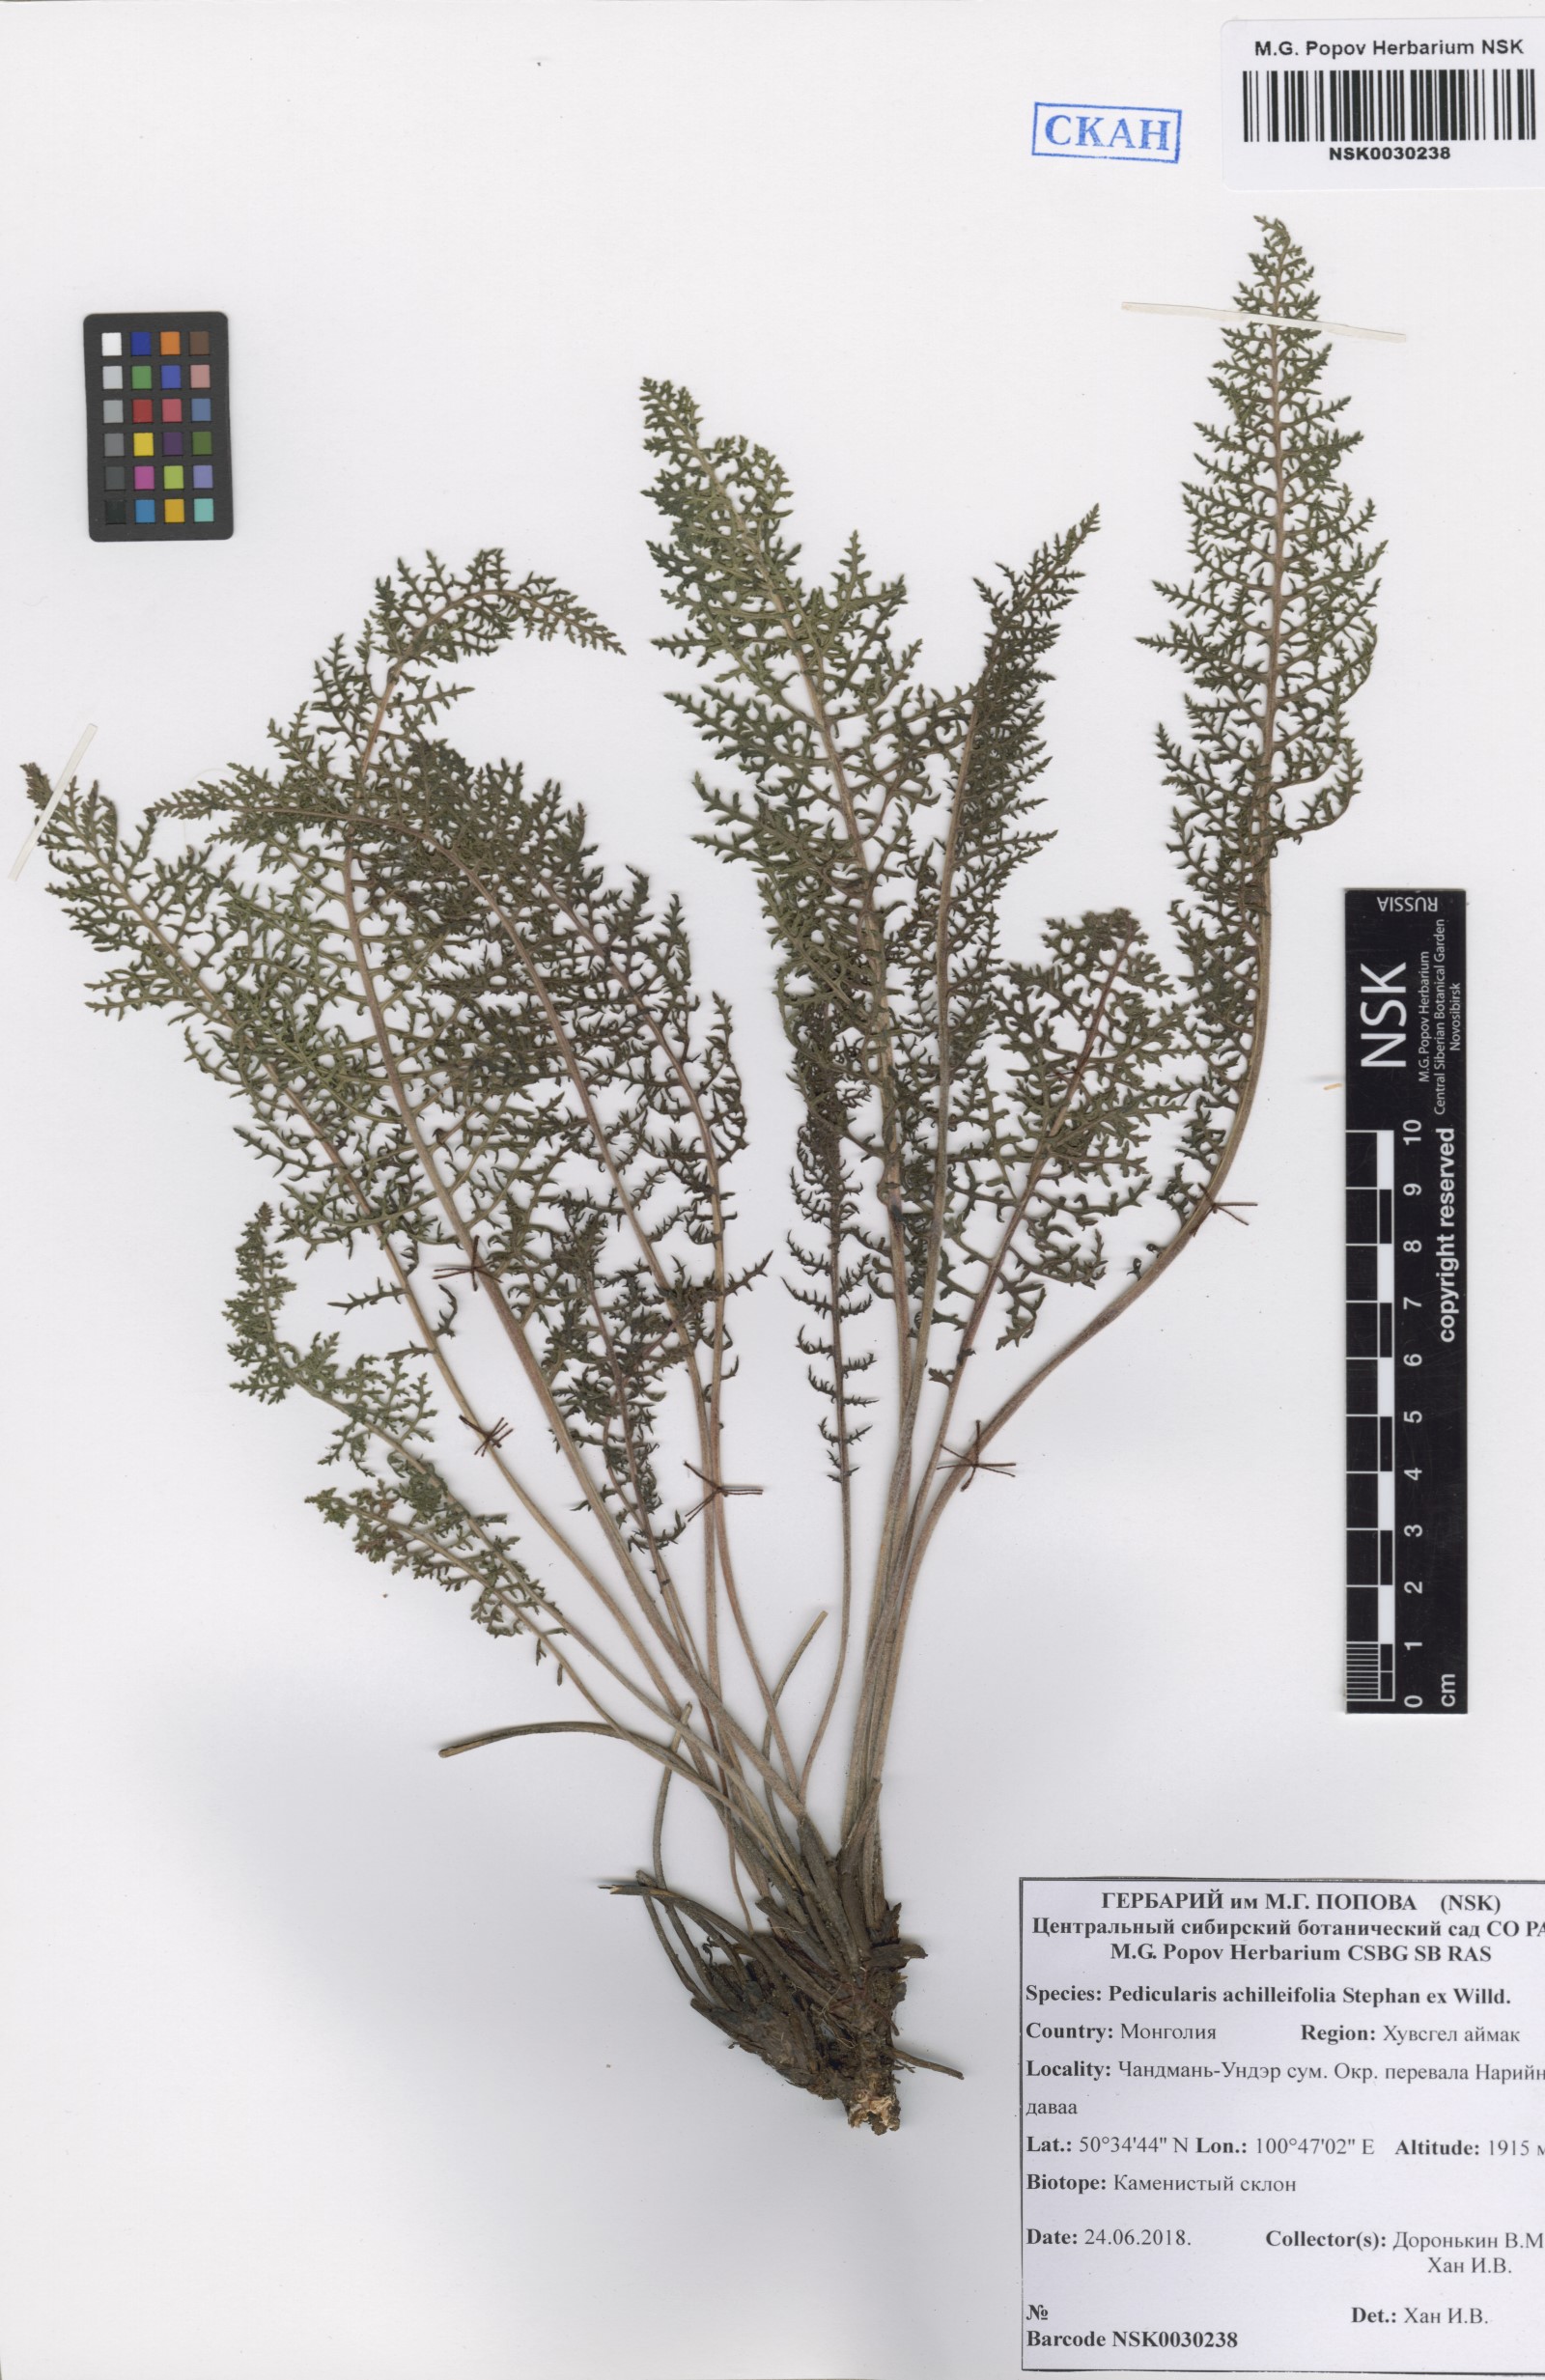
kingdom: Plantae
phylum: Tracheophyta
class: Magnoliopsida
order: Lamiales
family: Orobanchaceae
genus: Pedicularis
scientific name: Pedicularis achilleifolia
